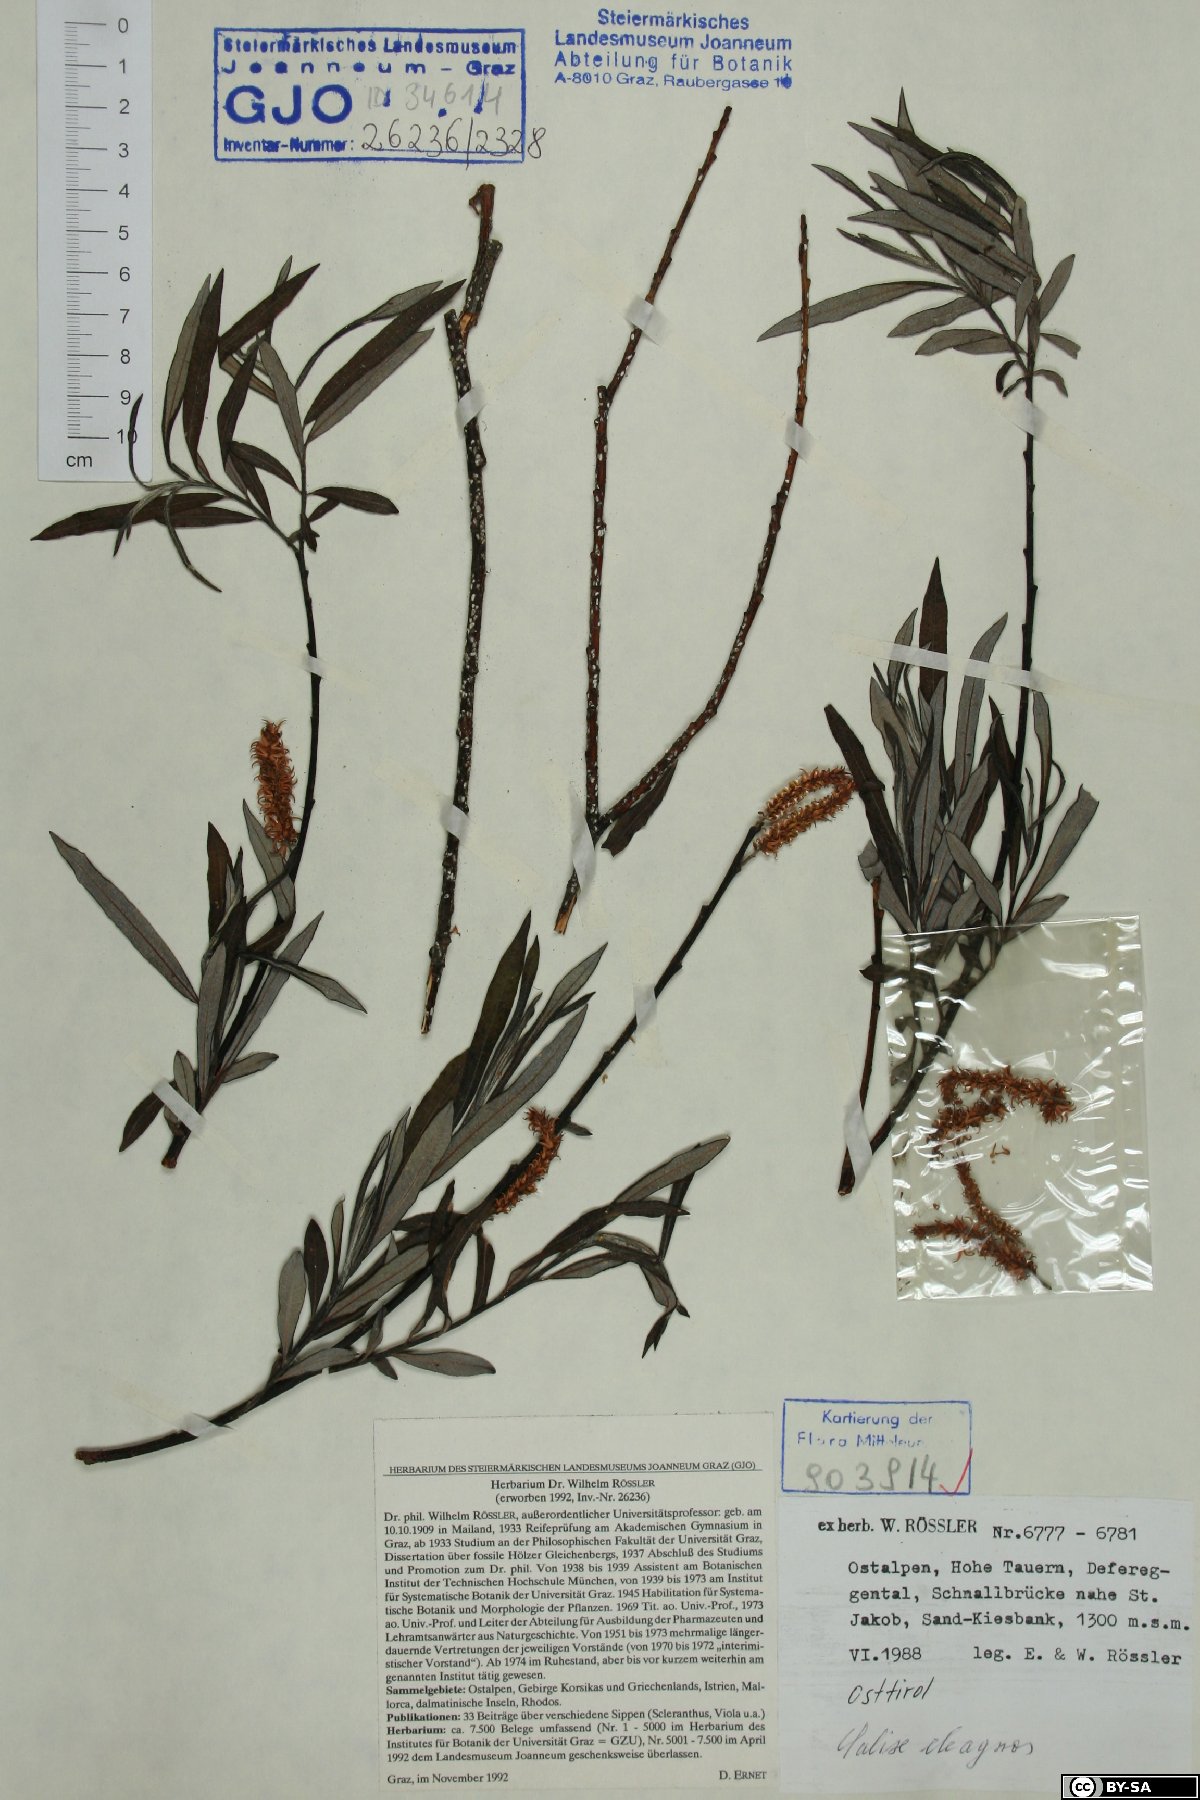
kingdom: Plantae
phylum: Tracheophyta
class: Magnoliopsida
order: Malpighiales
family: Salicaceae
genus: Salix
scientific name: Salix eleagnos
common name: Elaeagnus willow
